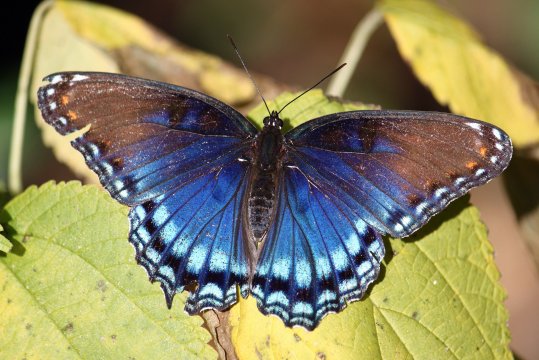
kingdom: Animalia
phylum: Arthropoda
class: Insecta
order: Lepidoptera
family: Nymphalidae
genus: Limenitis
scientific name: Limenitis arthemis
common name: Red-spotted Admiral
